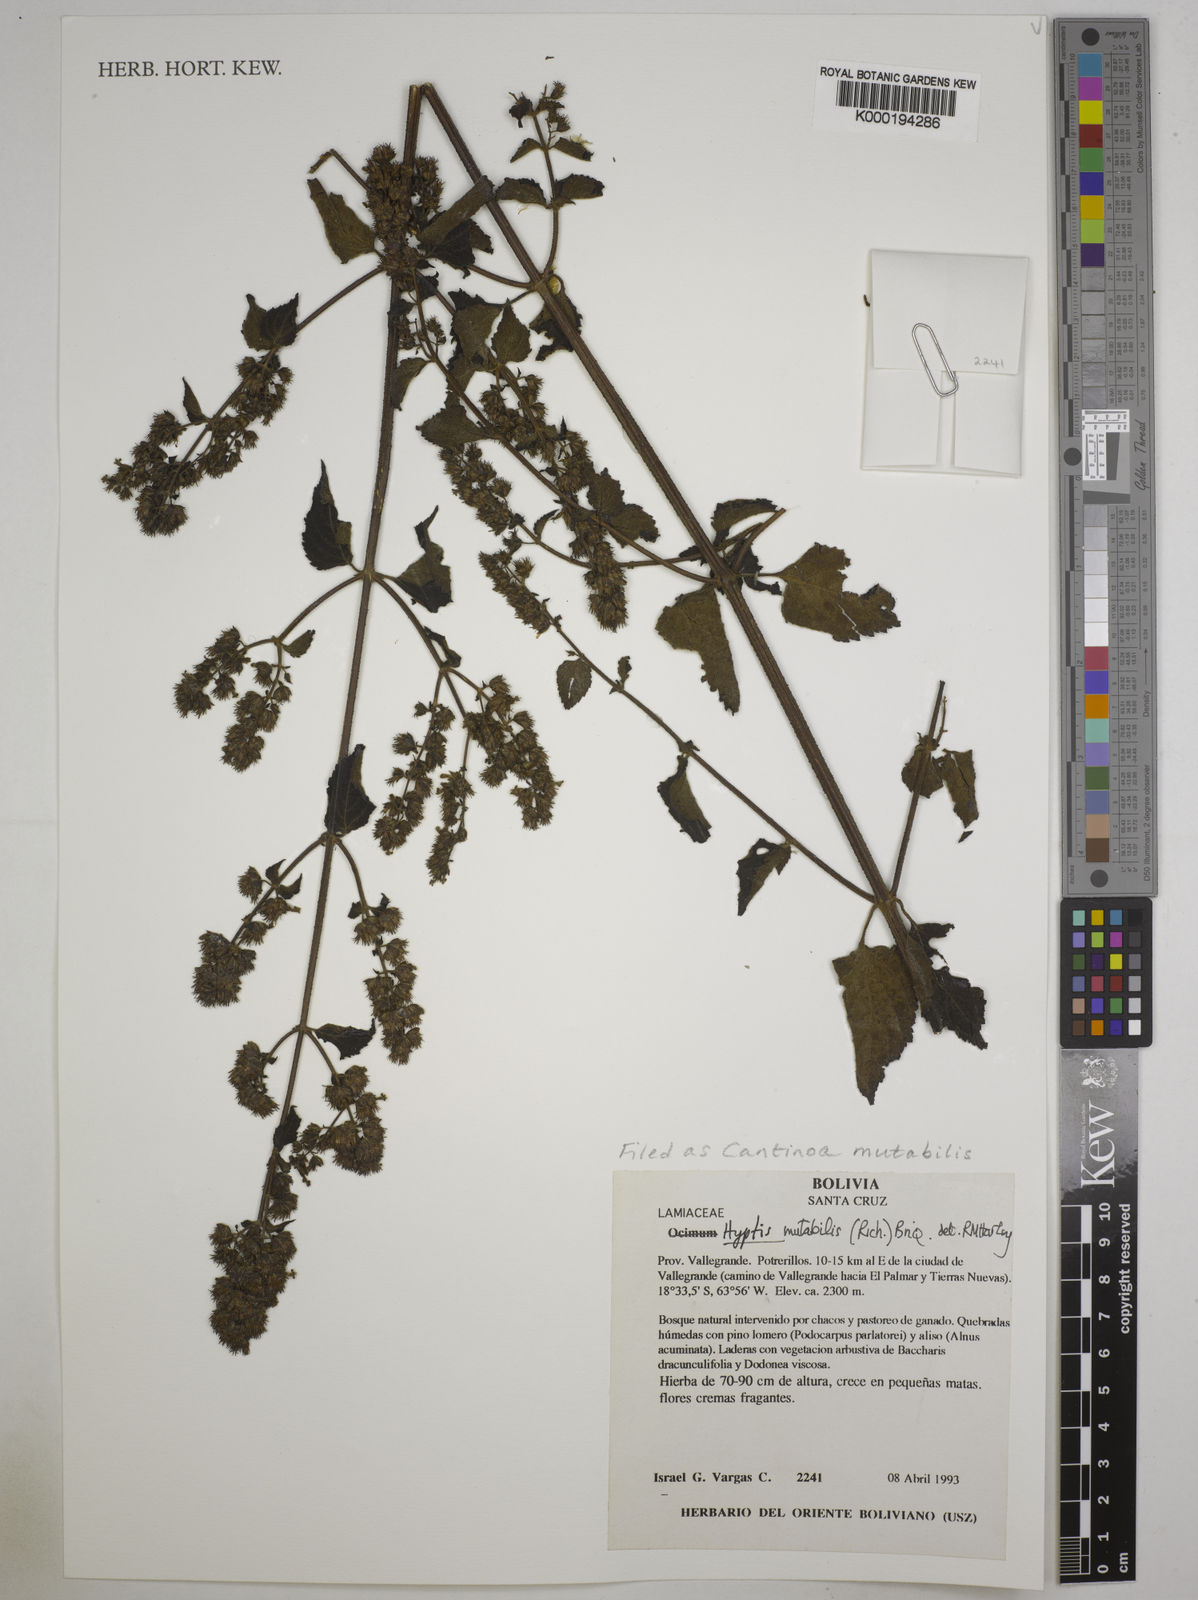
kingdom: Plantae
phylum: Tracheophyta
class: Magnoliopsida
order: Lamiales
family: Lamiaceae
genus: Cantinoa
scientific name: Cantinoa mutabilis
